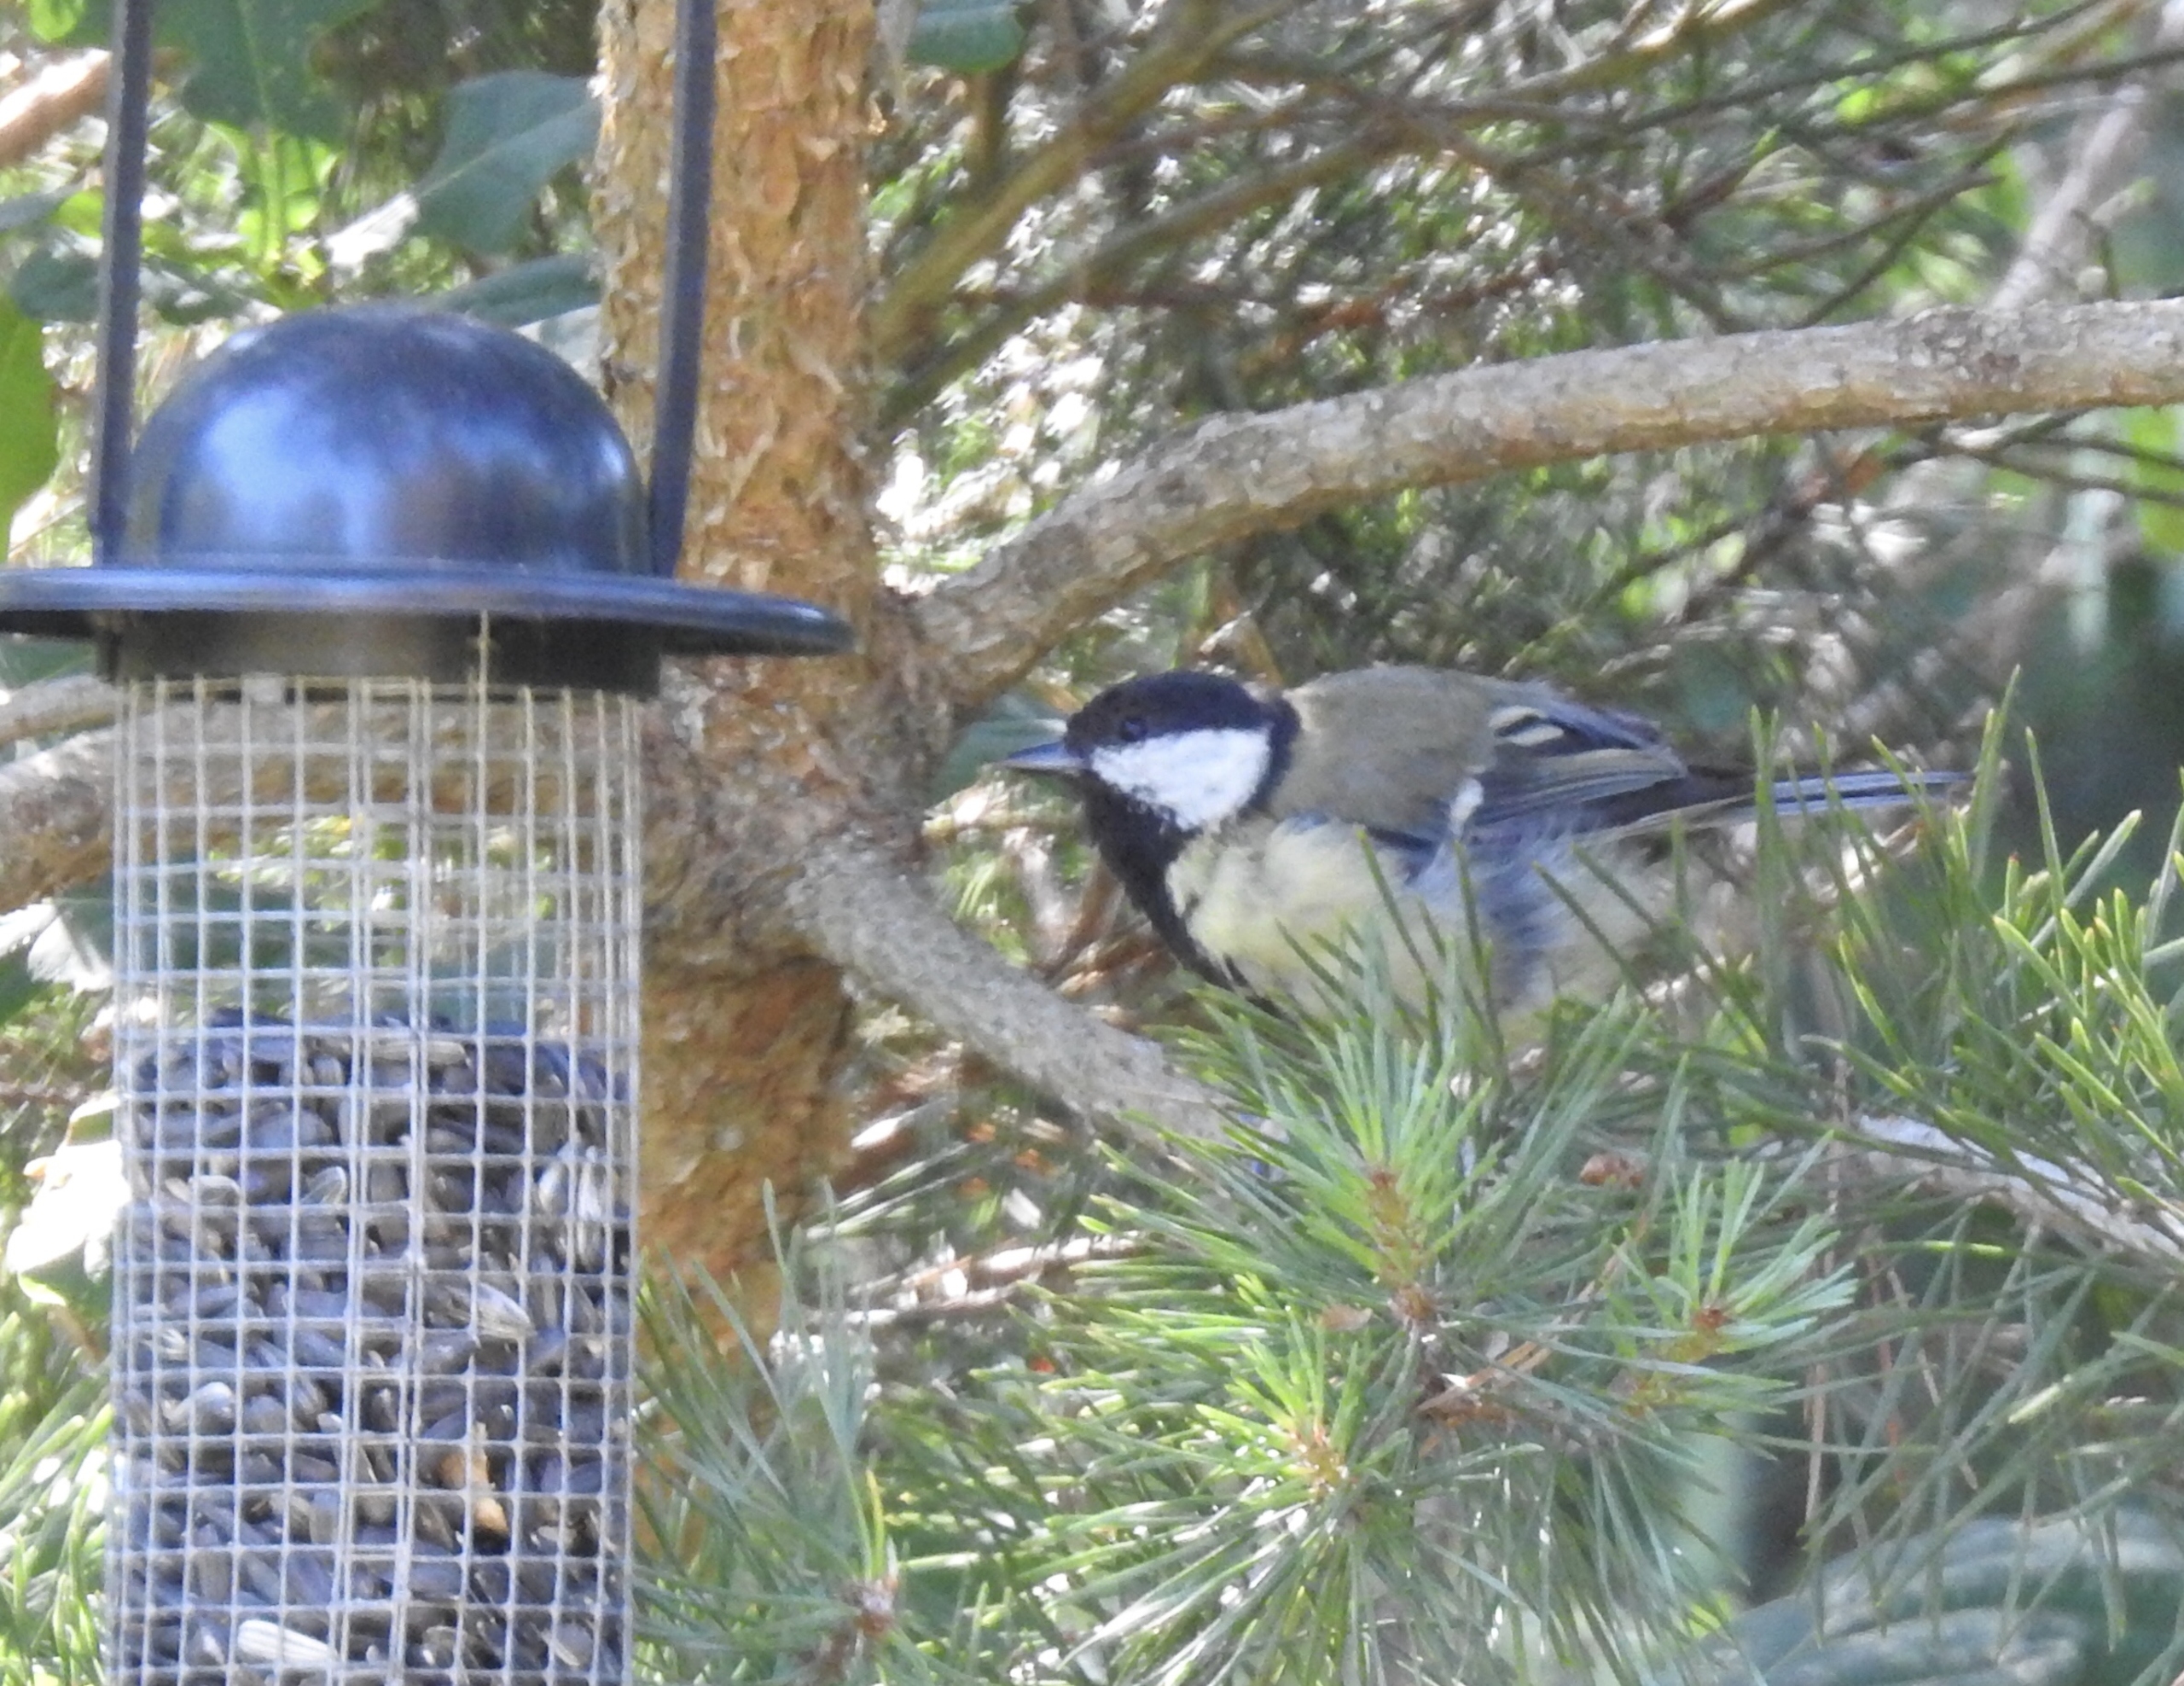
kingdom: Animalia
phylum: Chordata
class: Aves
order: Passeriformes
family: Paridae
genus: Parus
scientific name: Parus major
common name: Musvit
